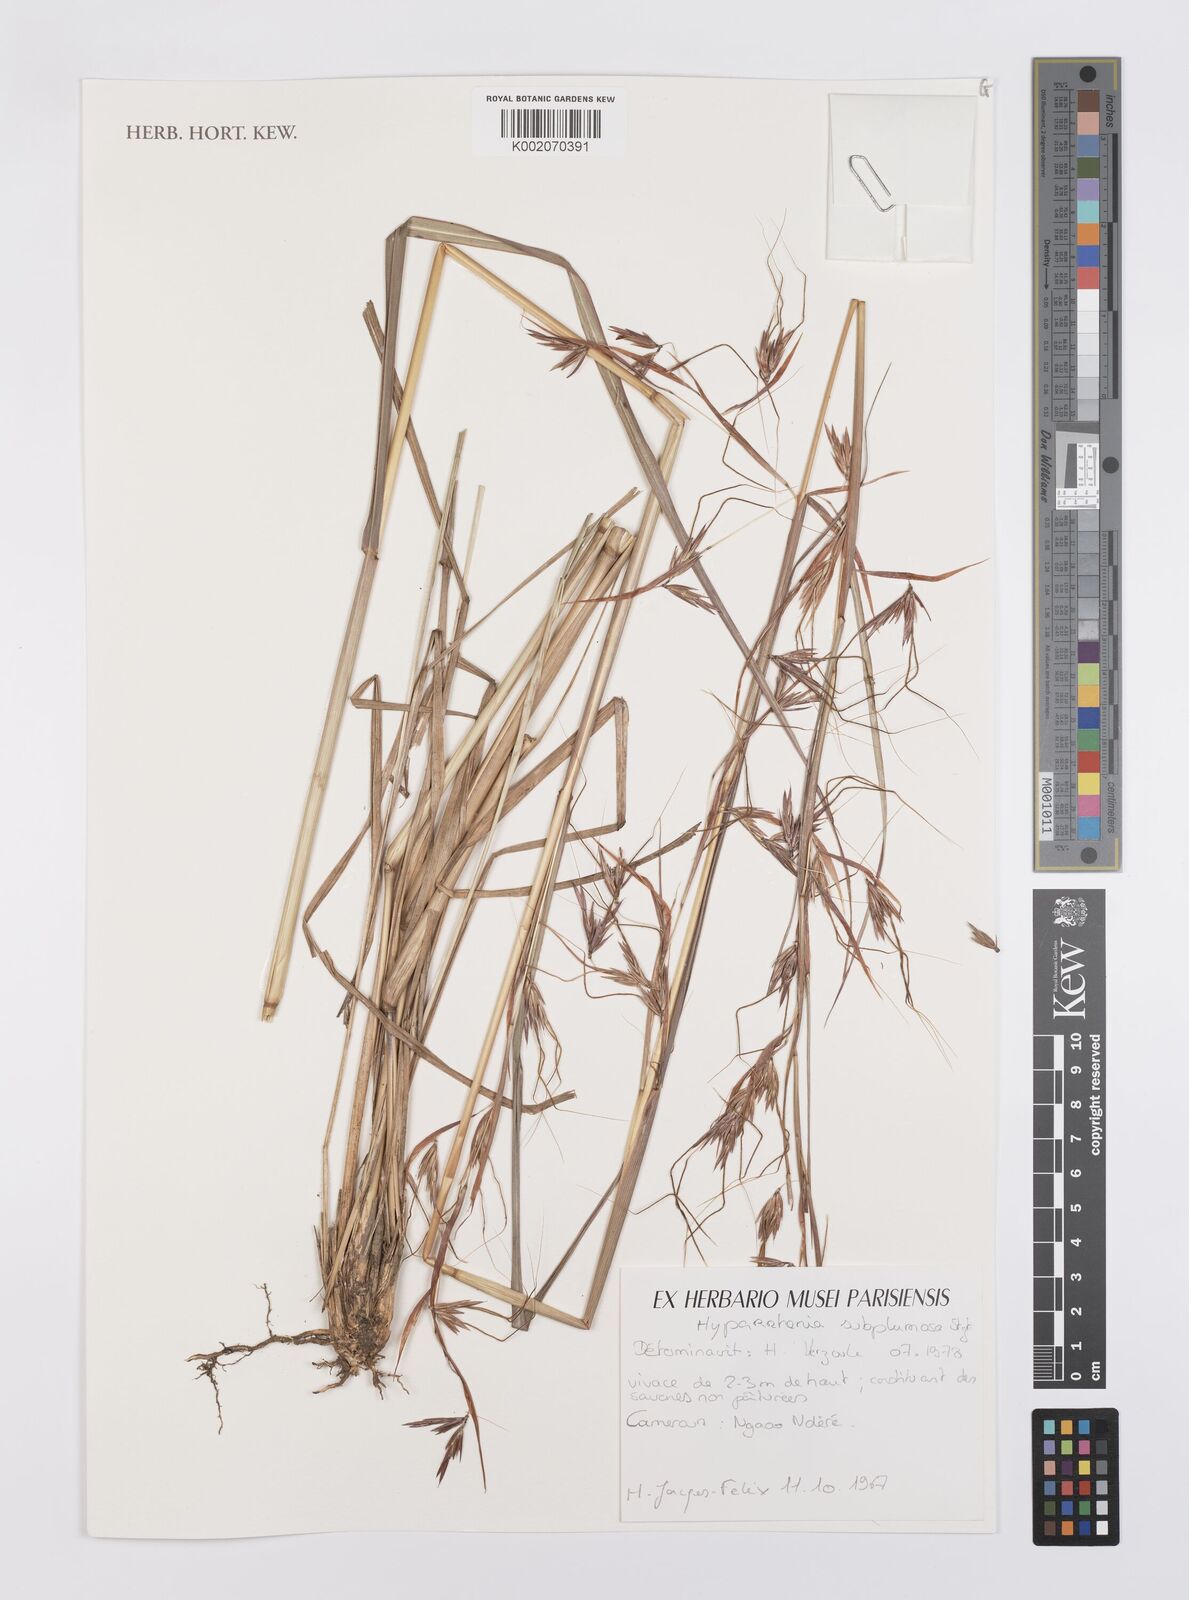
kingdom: Plantae
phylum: Tracheophyta
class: Liliopsida
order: Poales
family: Poaceae
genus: Hyparrhenia
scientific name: Hyparrhenia subplumosa
